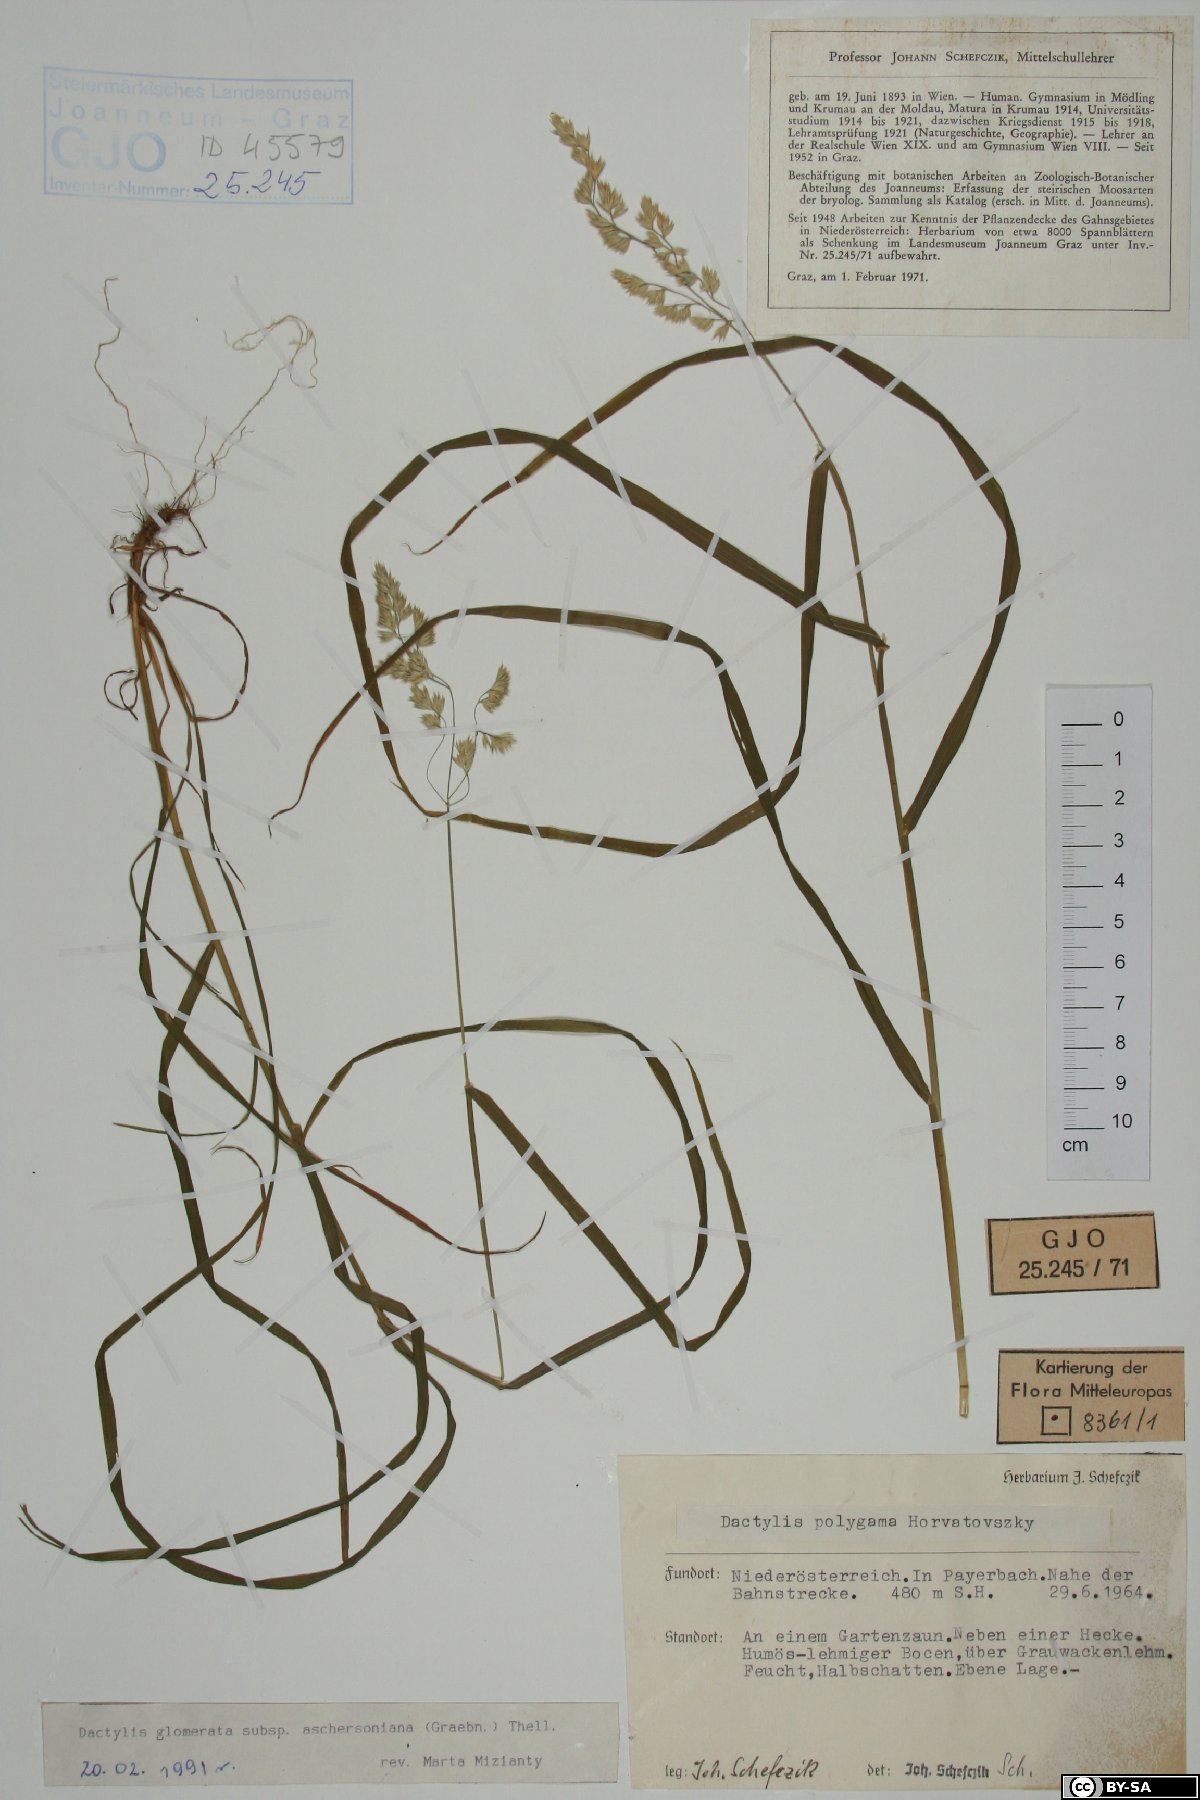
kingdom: Plantae
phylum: Tracheophyta
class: Liliopsida
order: Poales
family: Poaceae
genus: Dactylis
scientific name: Dactylis glomerata
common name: Orchardgrass
